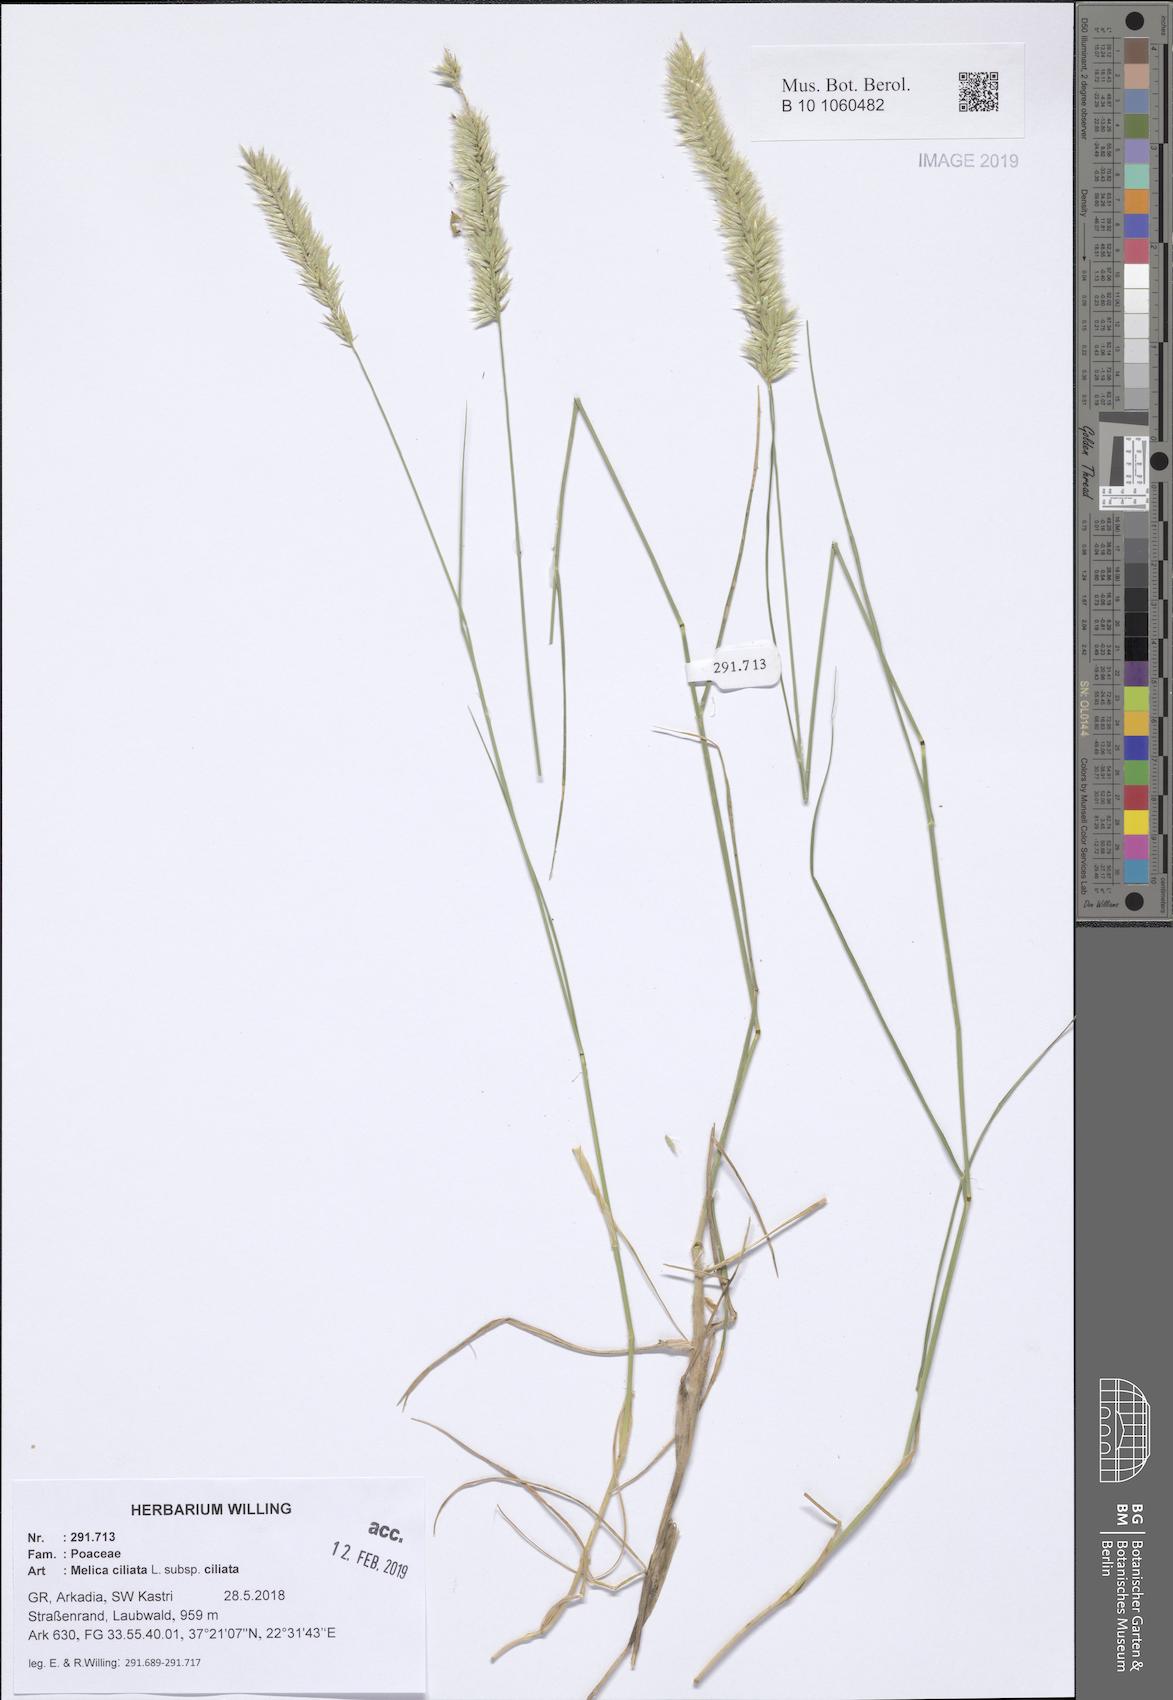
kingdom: Plantae
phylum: Tracheophyta
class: Liliopsida
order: Poales
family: Poaceae
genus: Melica
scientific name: Melica ciliata
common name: Hairy melicgrass
